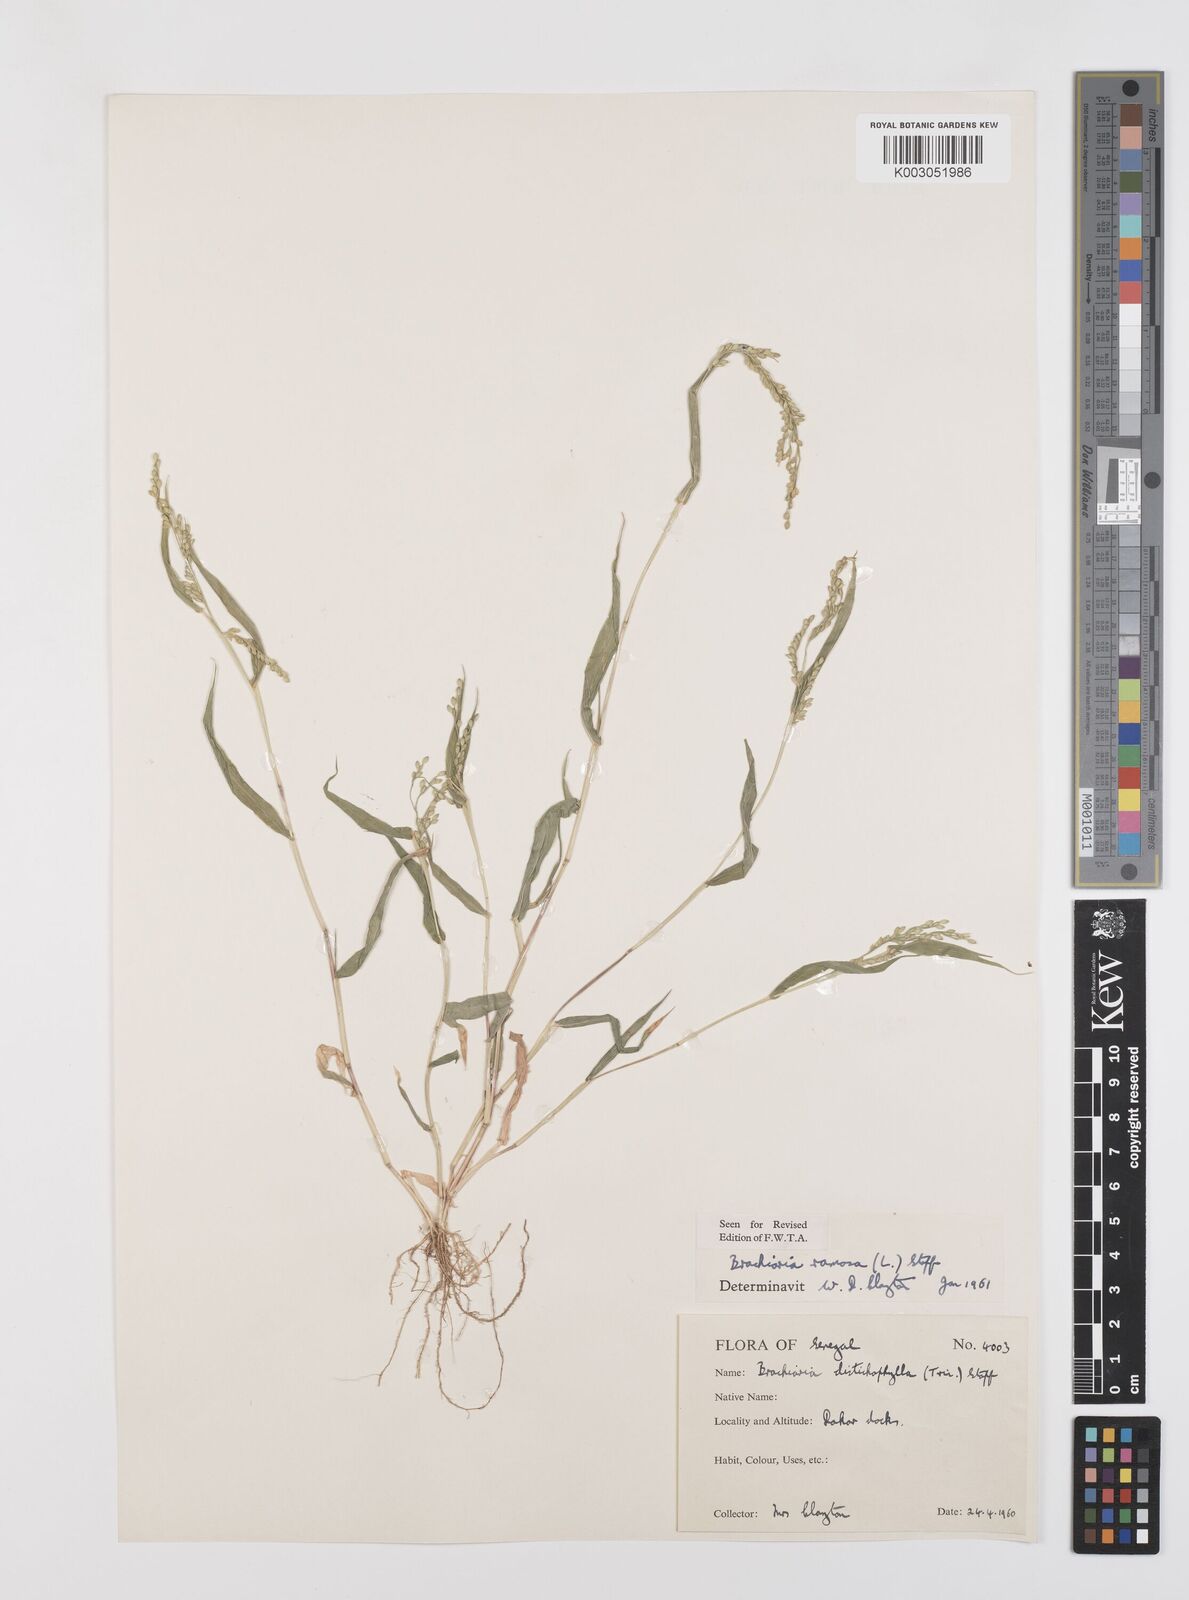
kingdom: Plantae
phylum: Tracheophyta
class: Liliopsida
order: Poales
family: Poaceae
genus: Urochloa
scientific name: Urochloa ramosa
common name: Browntop millet
